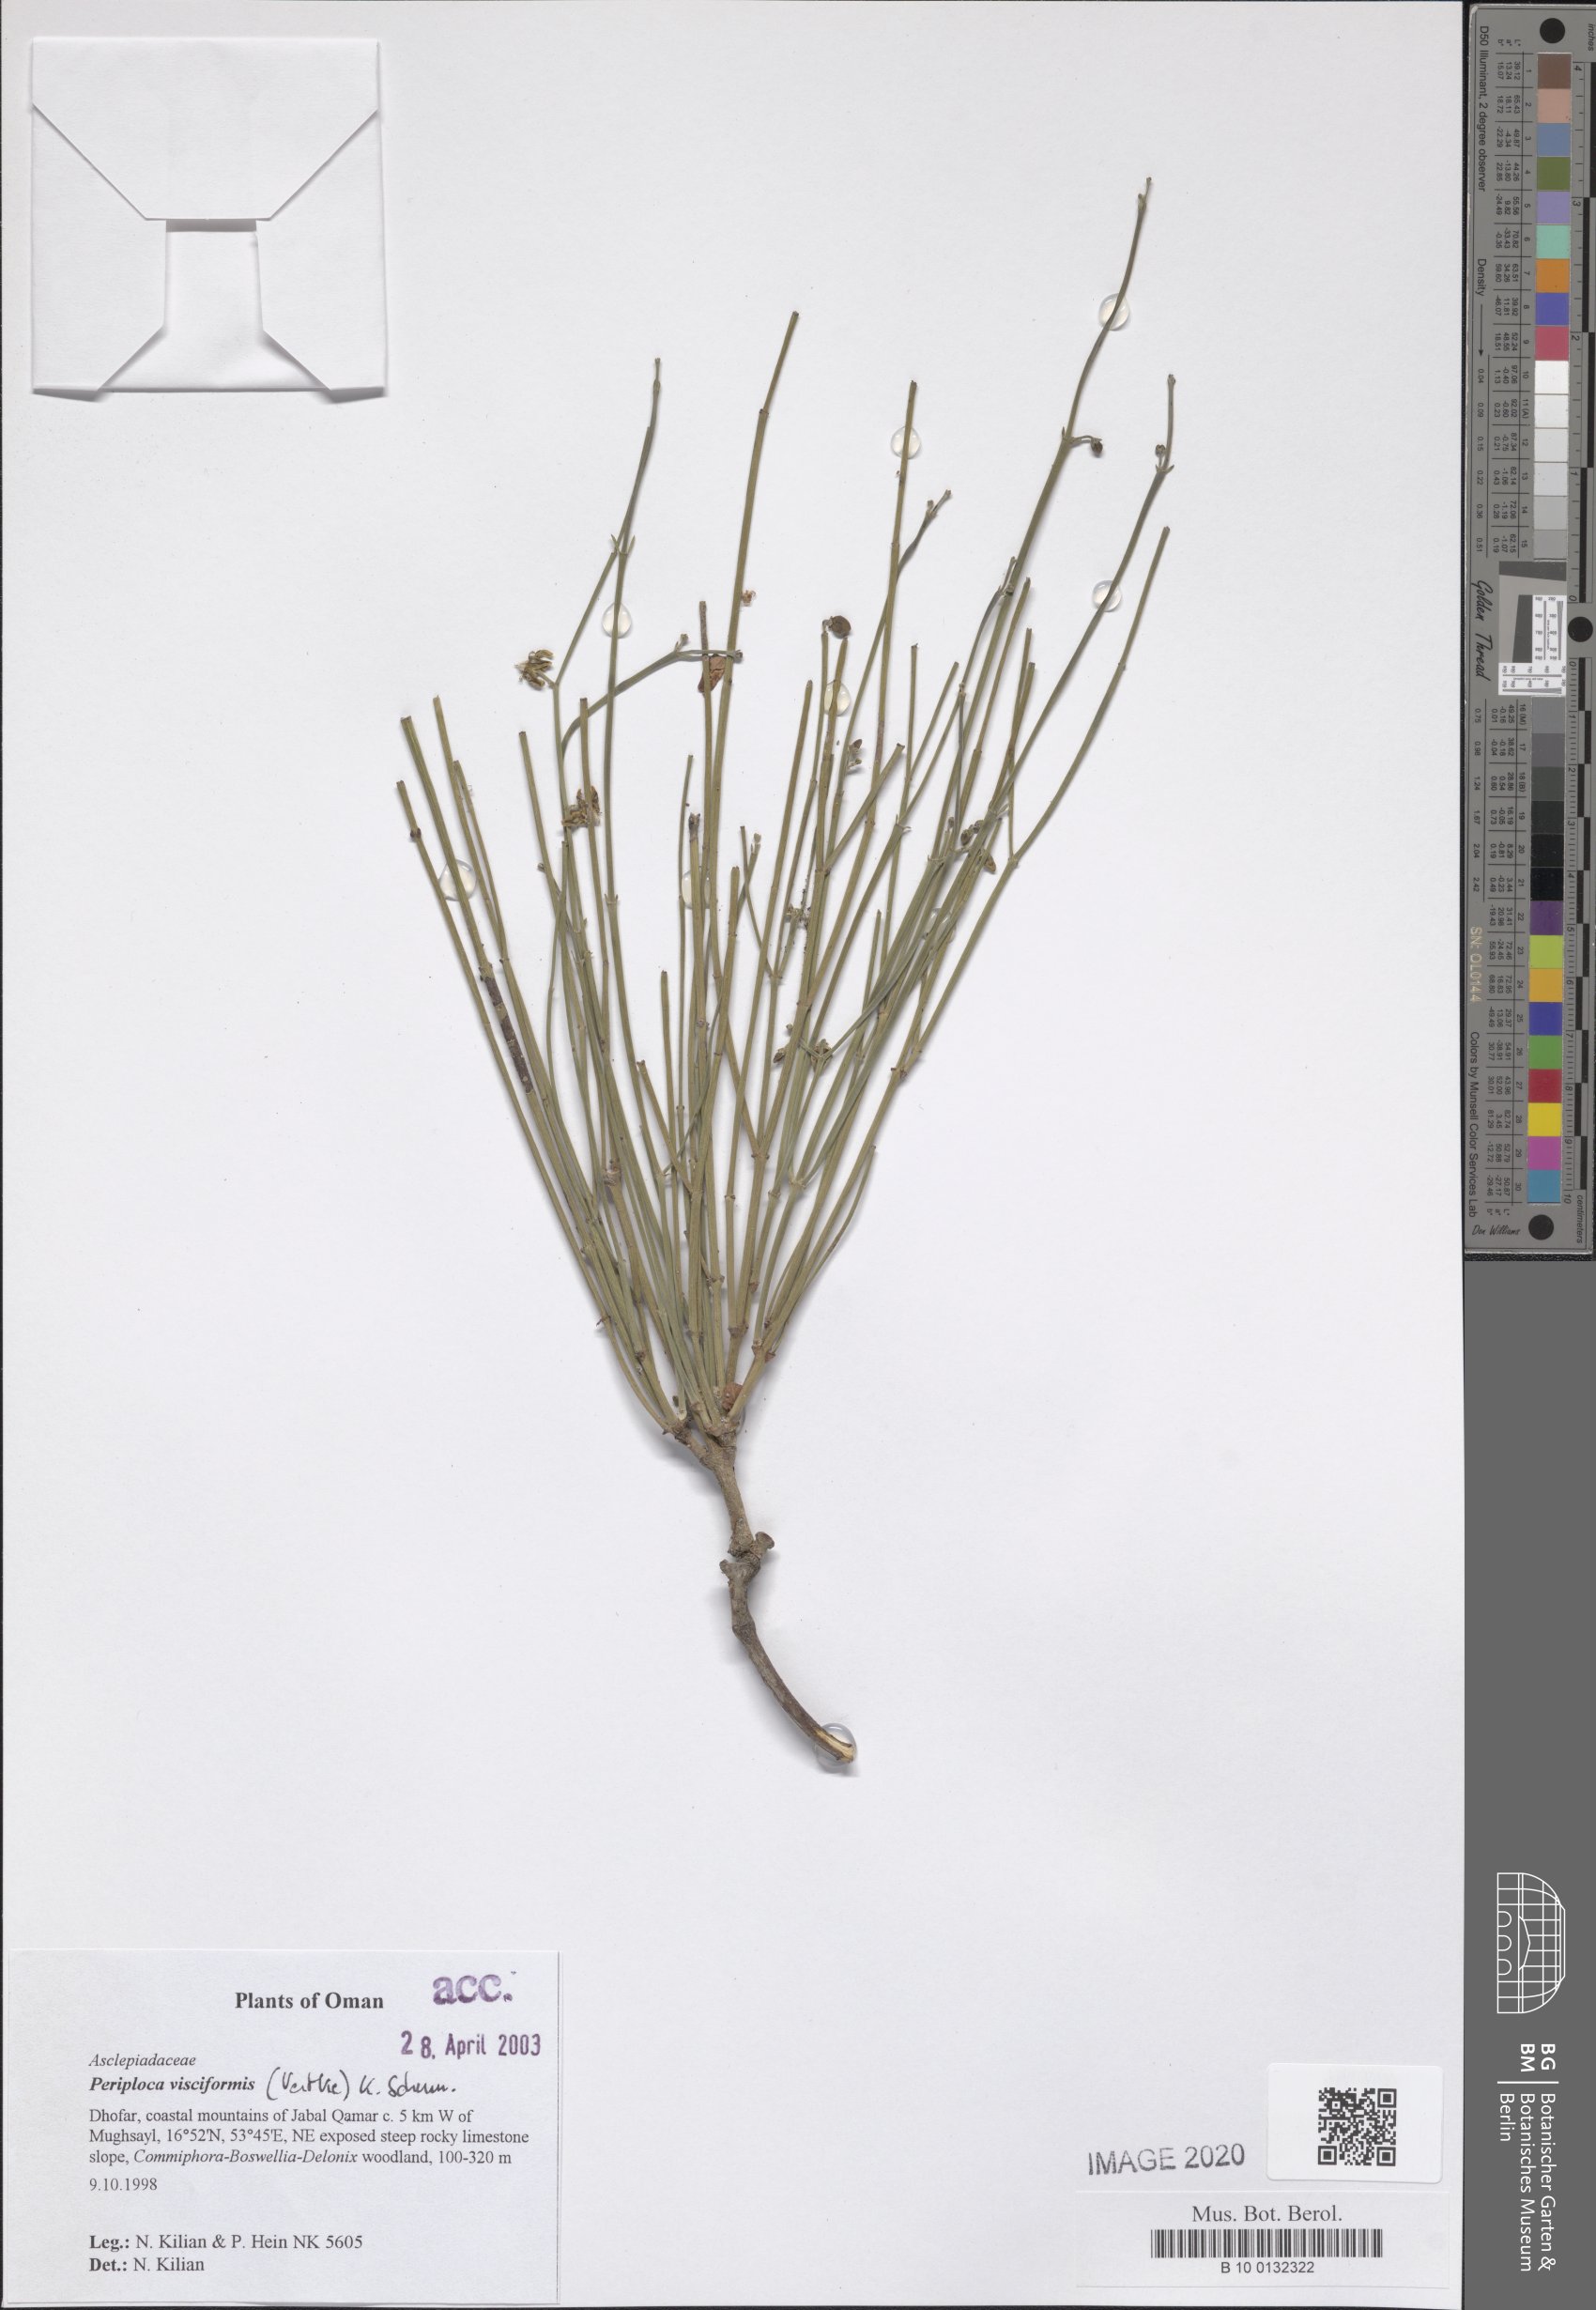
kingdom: Plantae
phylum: Tracheophyta
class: Magnoliopsida
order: Gentianales
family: Apocynaceae
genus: Periploca
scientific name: Periploca visciformis
